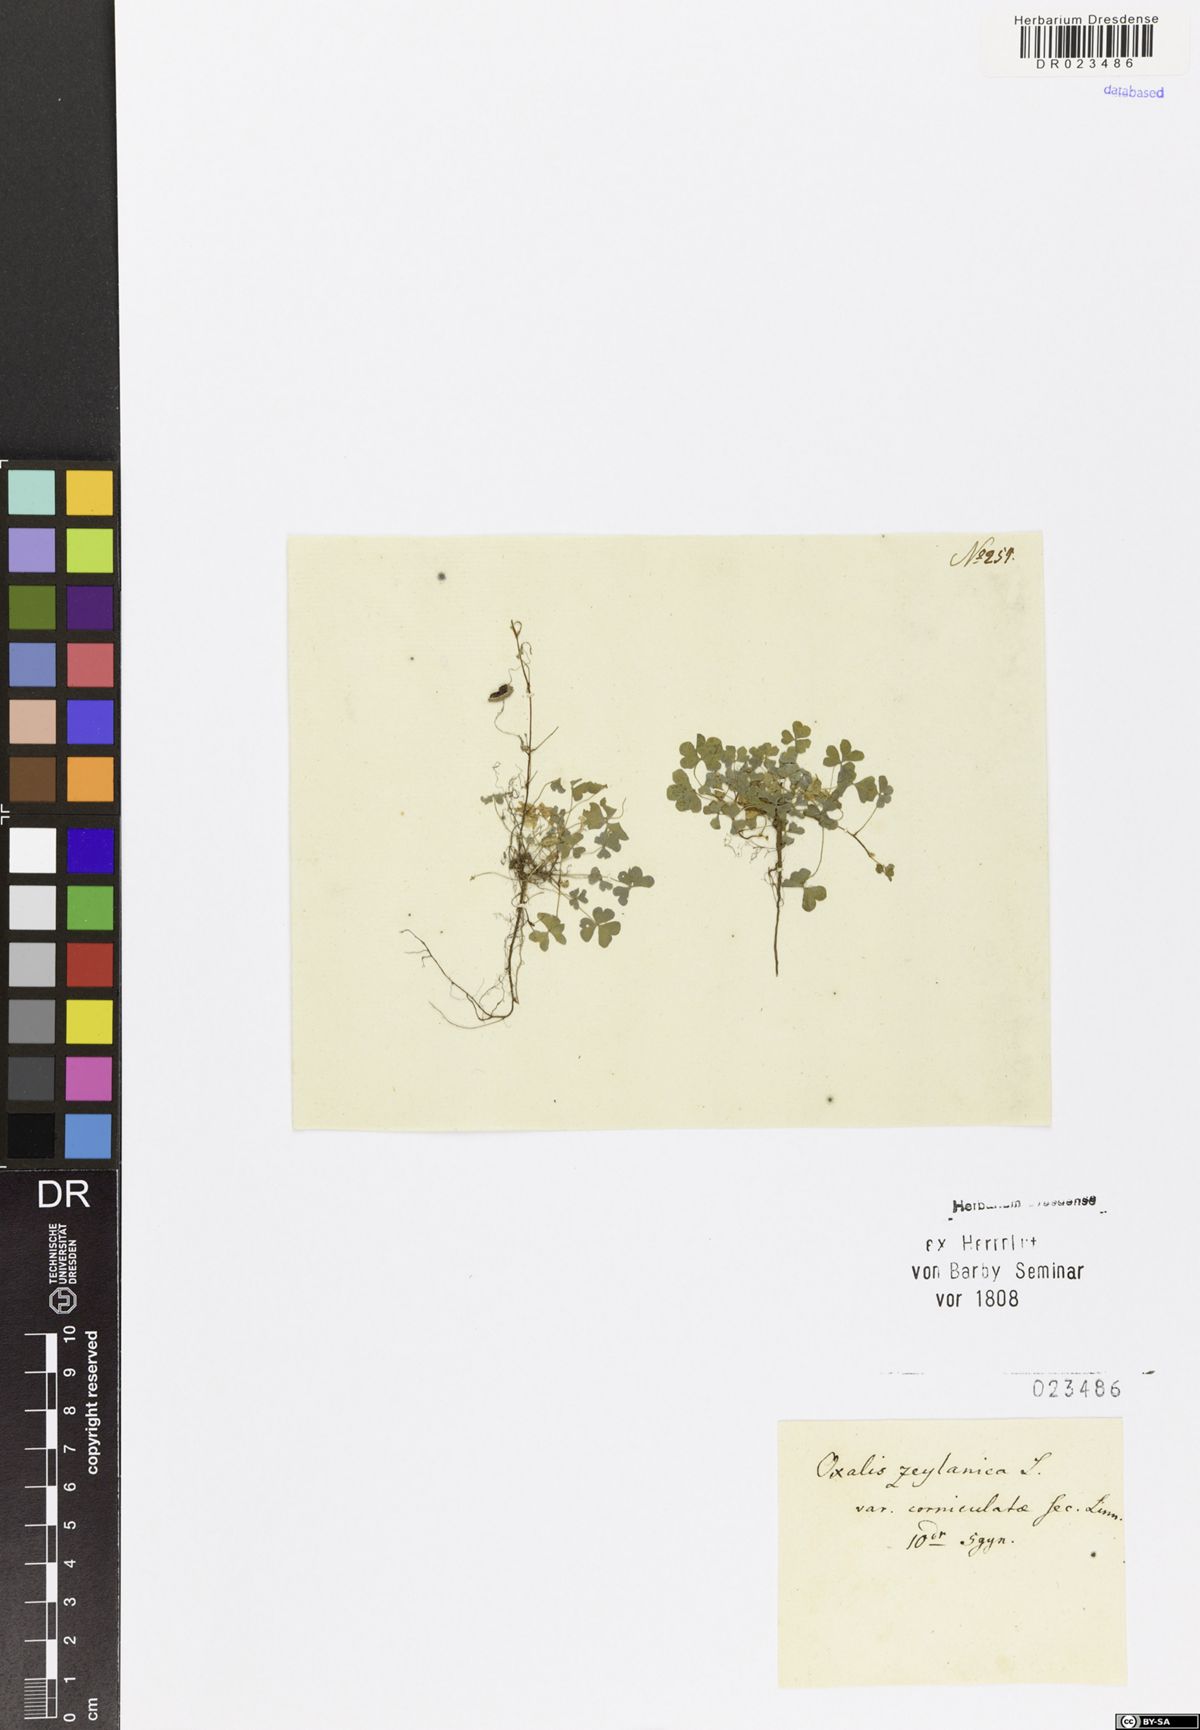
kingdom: Plantae
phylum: Tracheophyta
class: Magnoliopsida
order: Oxalidales
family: Oxalidaceae
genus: Oxalis
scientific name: Oxalis corniculata
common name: Procumbent yellow-sorrel
